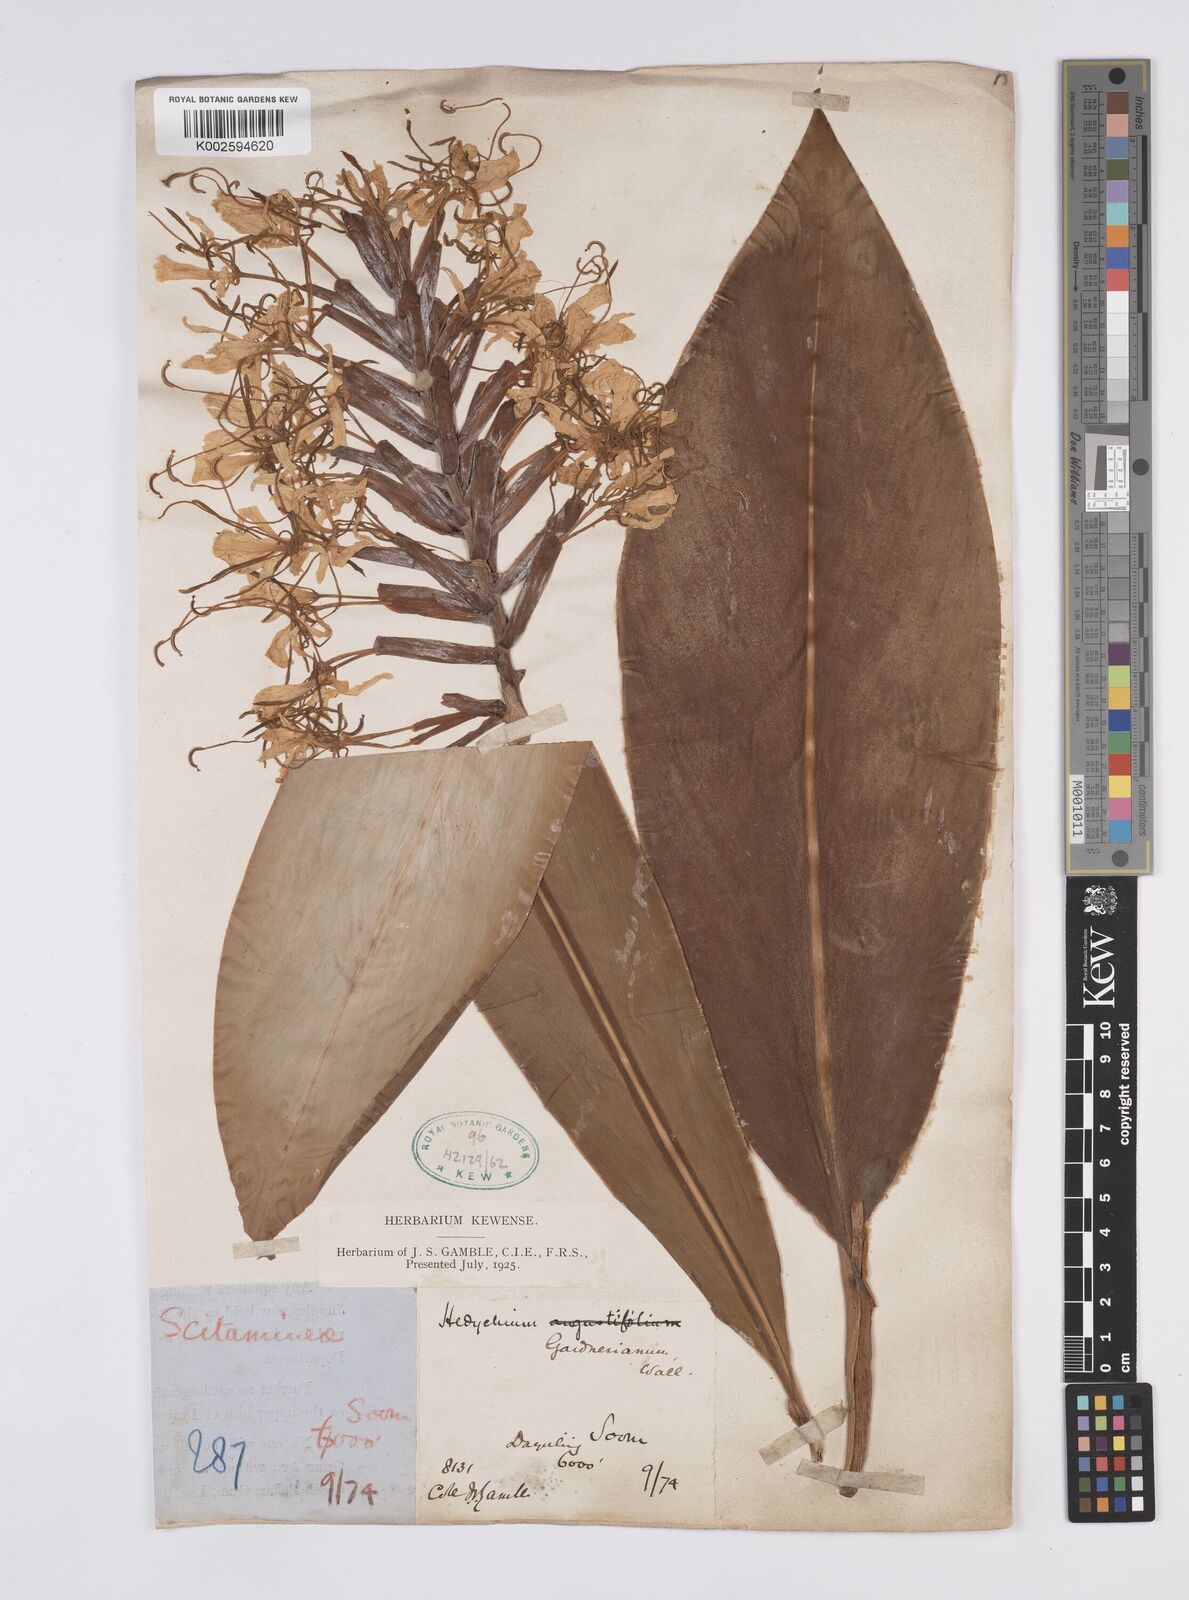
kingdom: Plantae
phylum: Tracheophyta
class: Liliopsida
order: Zingiberales
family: Zingiberaceae
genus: Hedychium
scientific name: Hedychium gardnerianum
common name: Himalayan ginger
